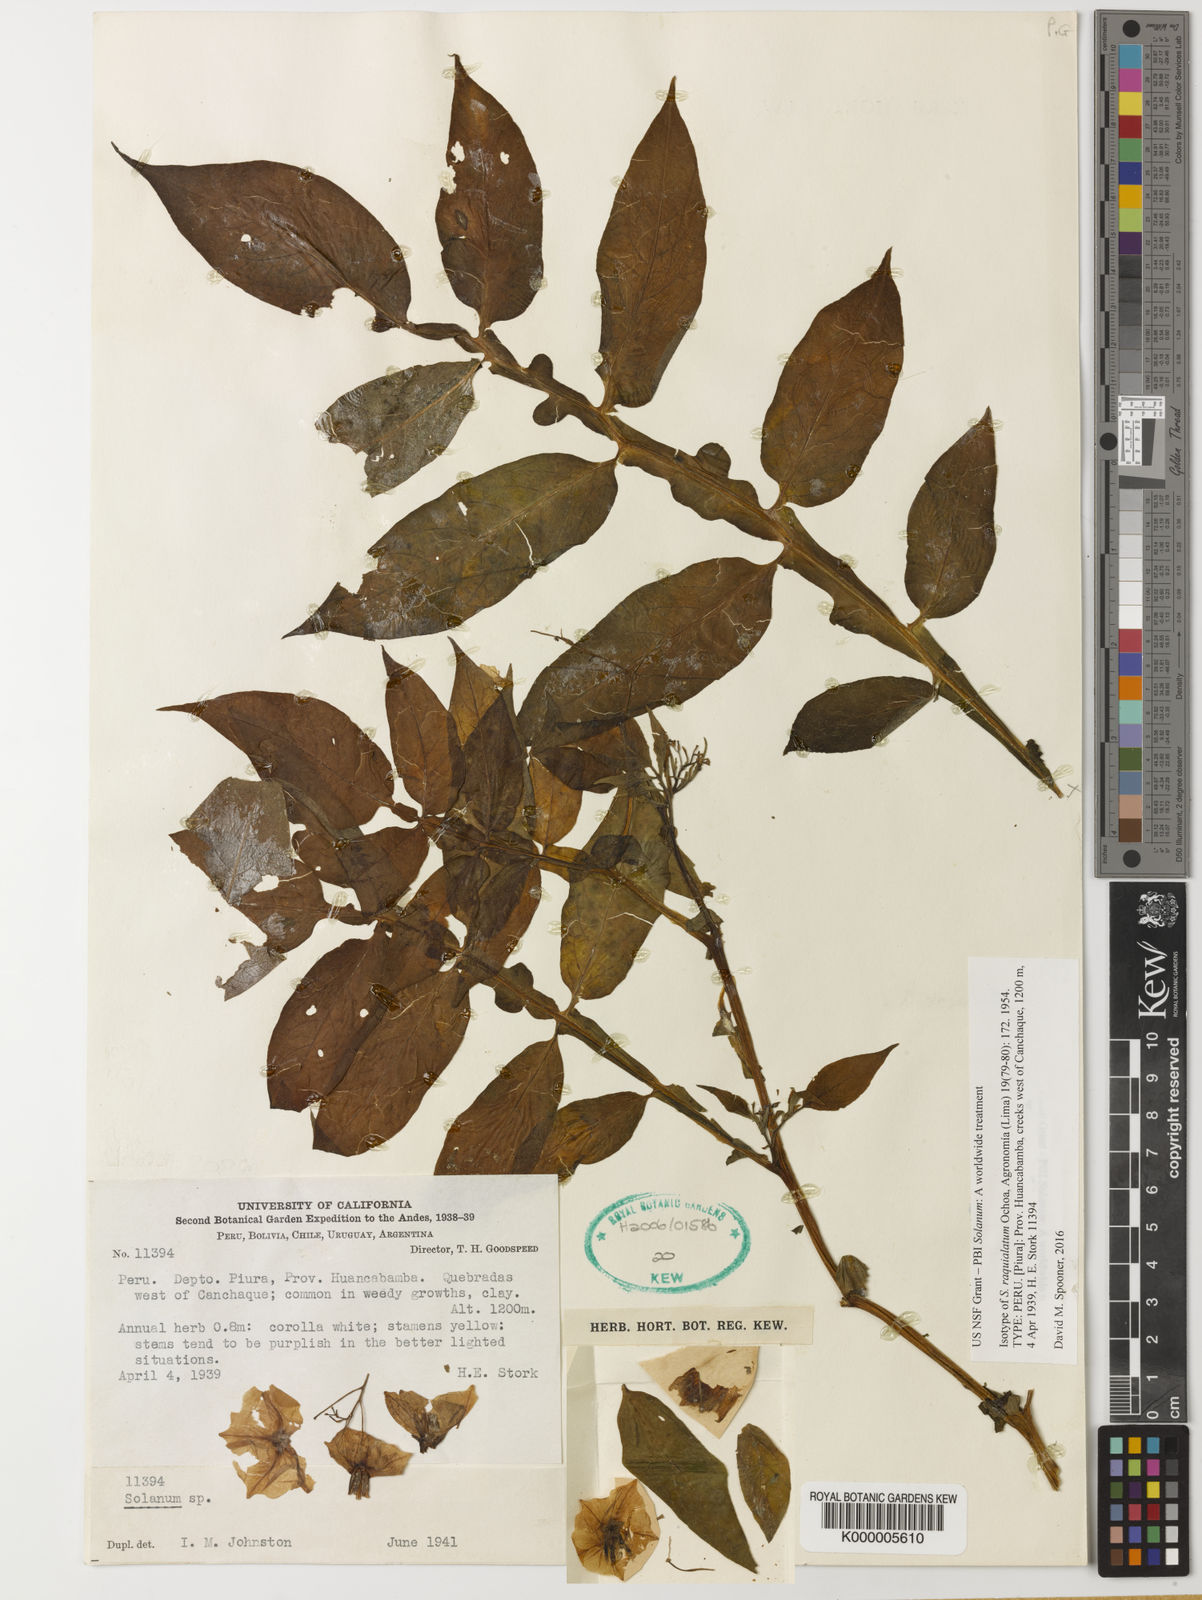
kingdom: Plantae
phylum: Tracheophyta
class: Magnoliopsida
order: Solanales
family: Solanaceae
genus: Solanum
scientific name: Solanum raquialatum
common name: Papa de wisco
